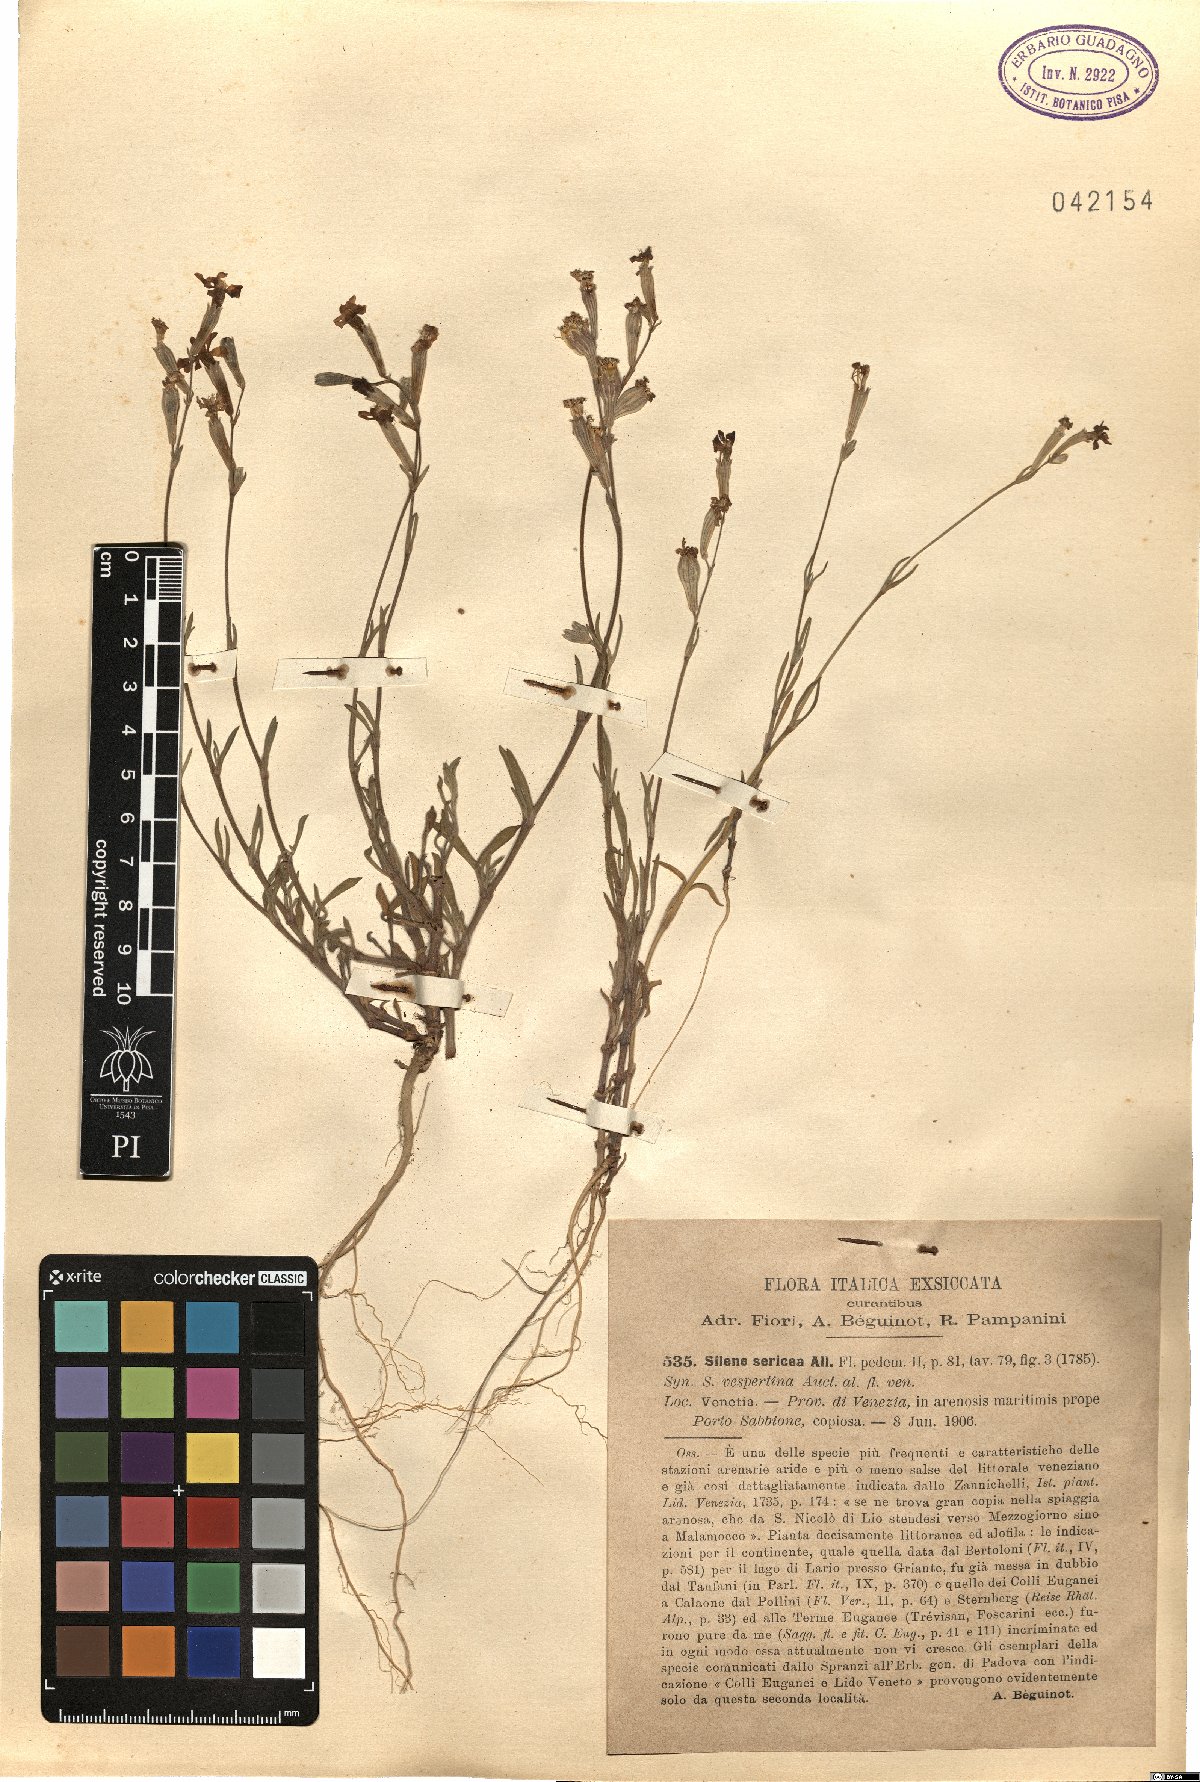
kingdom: Plantae
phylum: Tracheophyta
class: Magnoliopsida
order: Caryophyllales
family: Caryophyllaceae
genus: Silene
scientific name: Silene sericea
